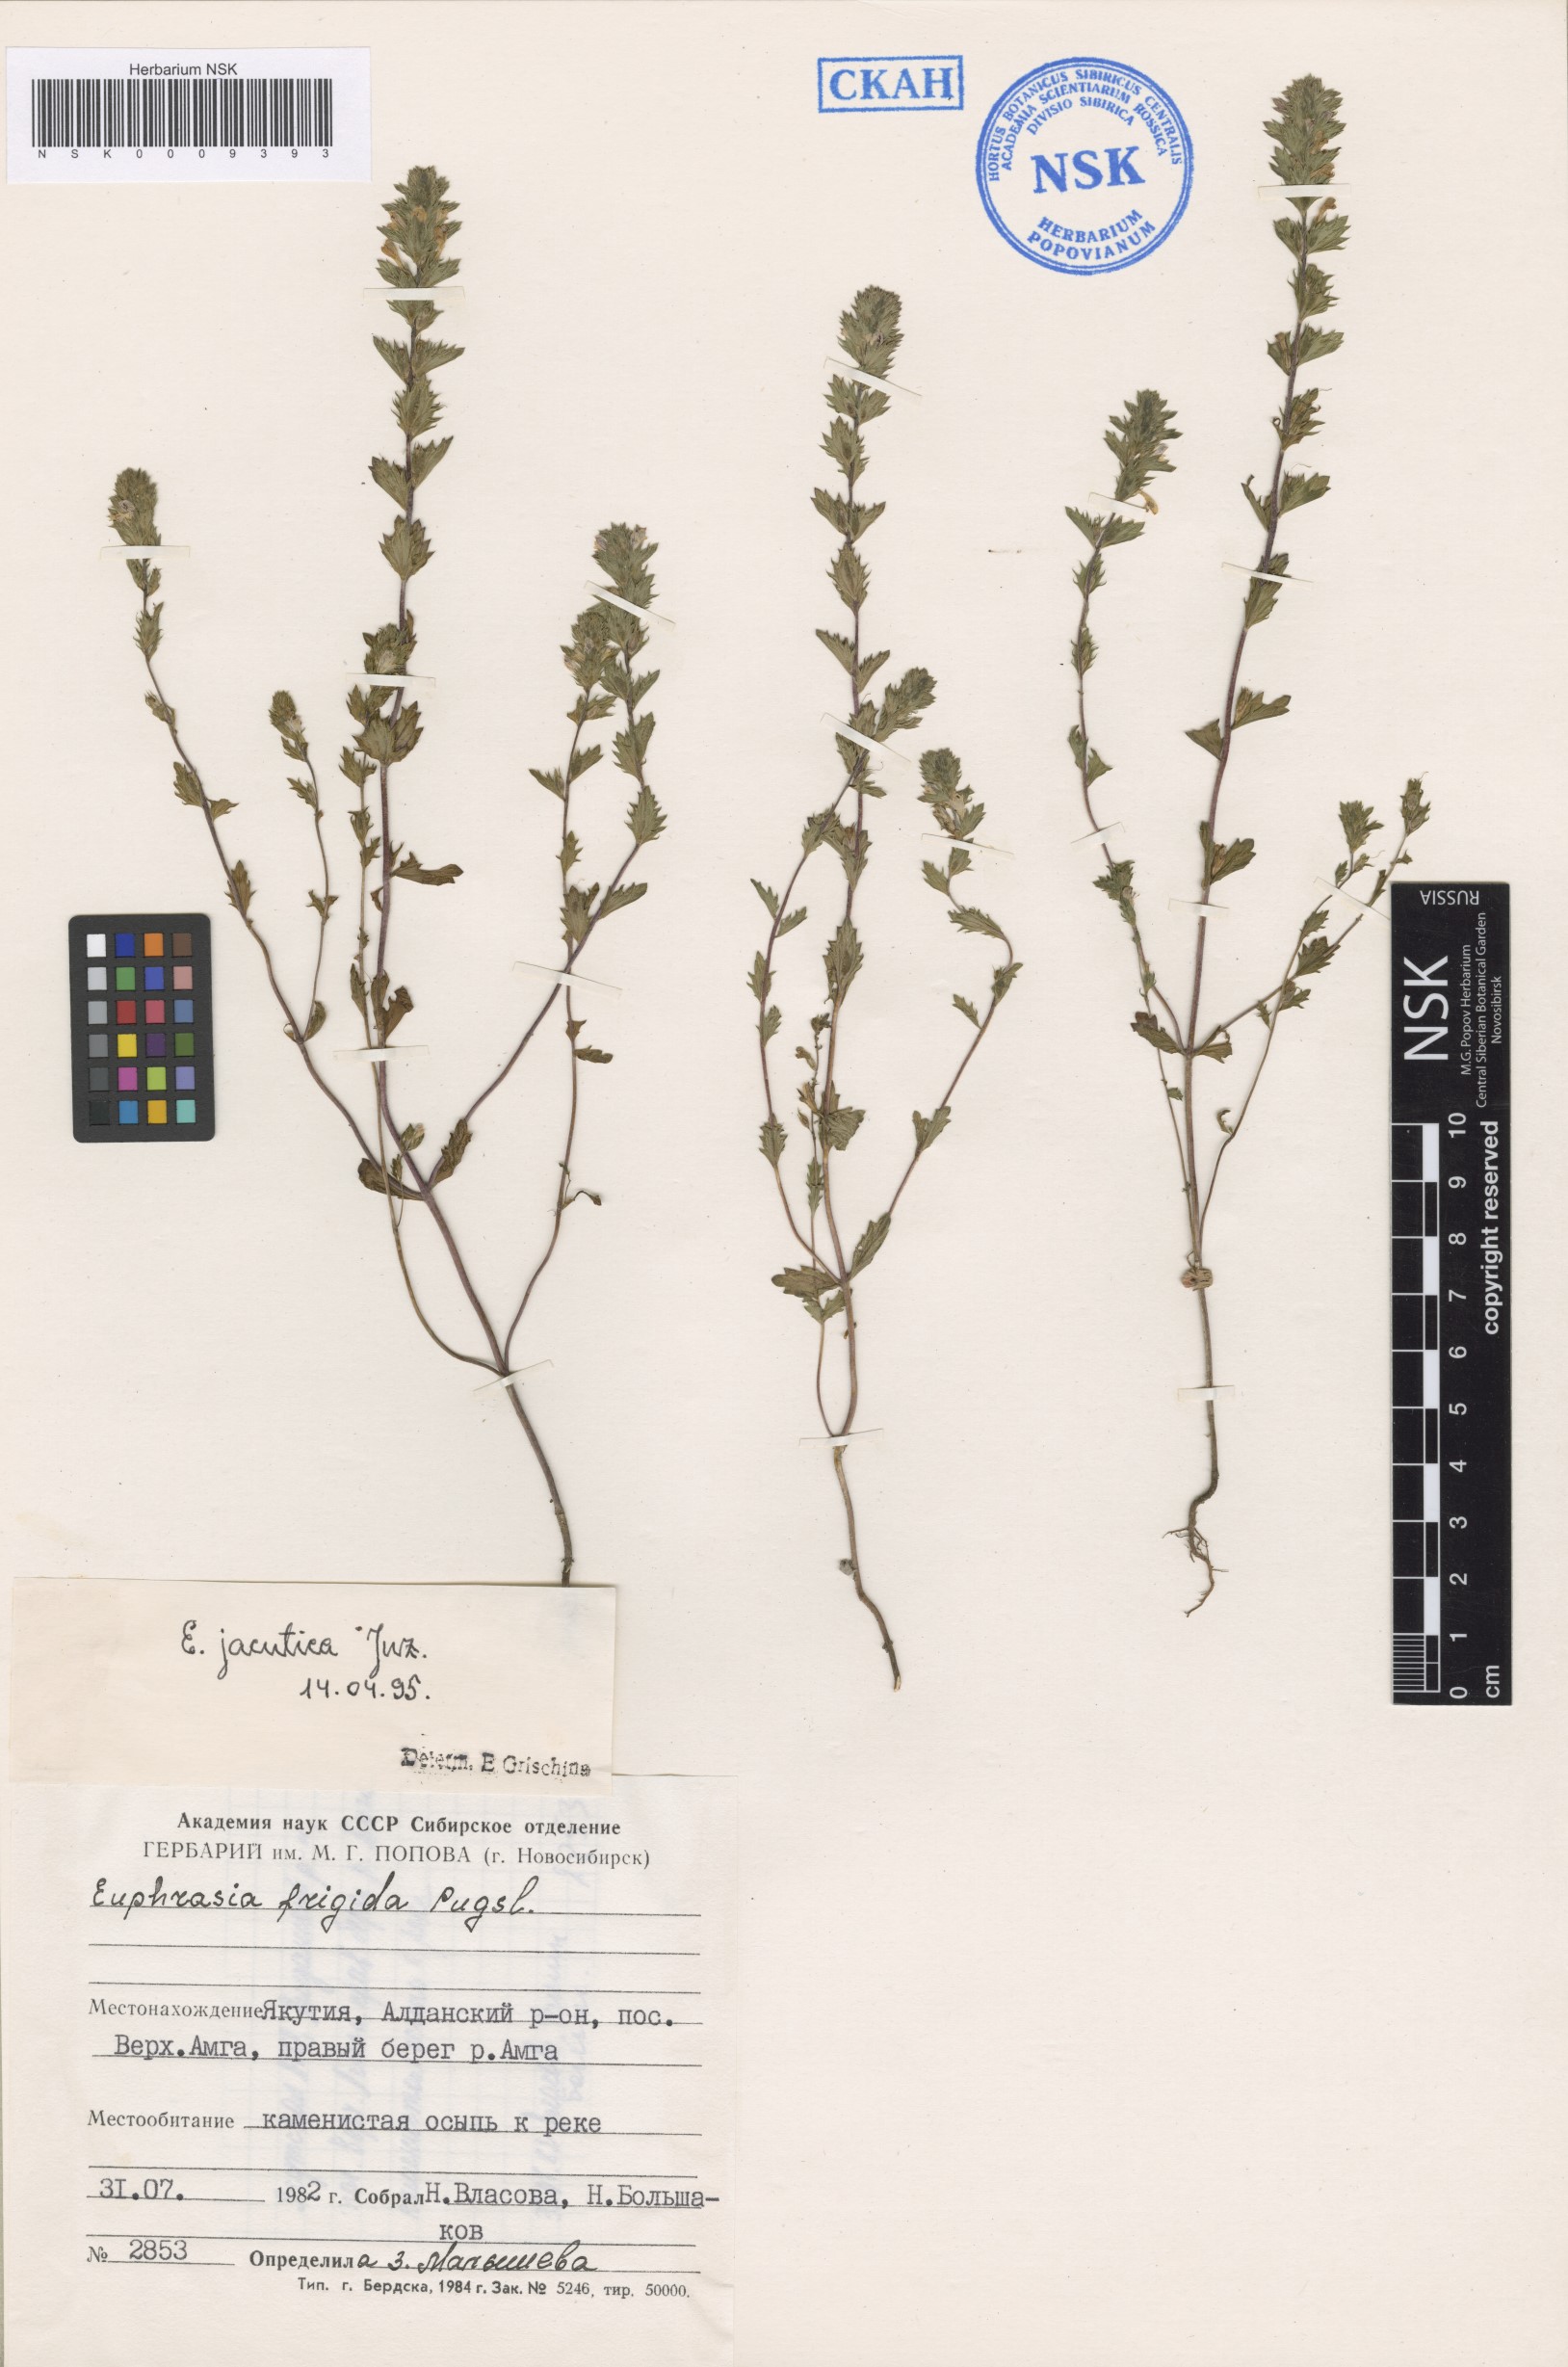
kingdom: Plantae
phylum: Tracheophyta
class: Magnoliopsida
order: Lamiales
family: Orobanchaceae
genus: Euphrasia
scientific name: Euphrasia jacutica
